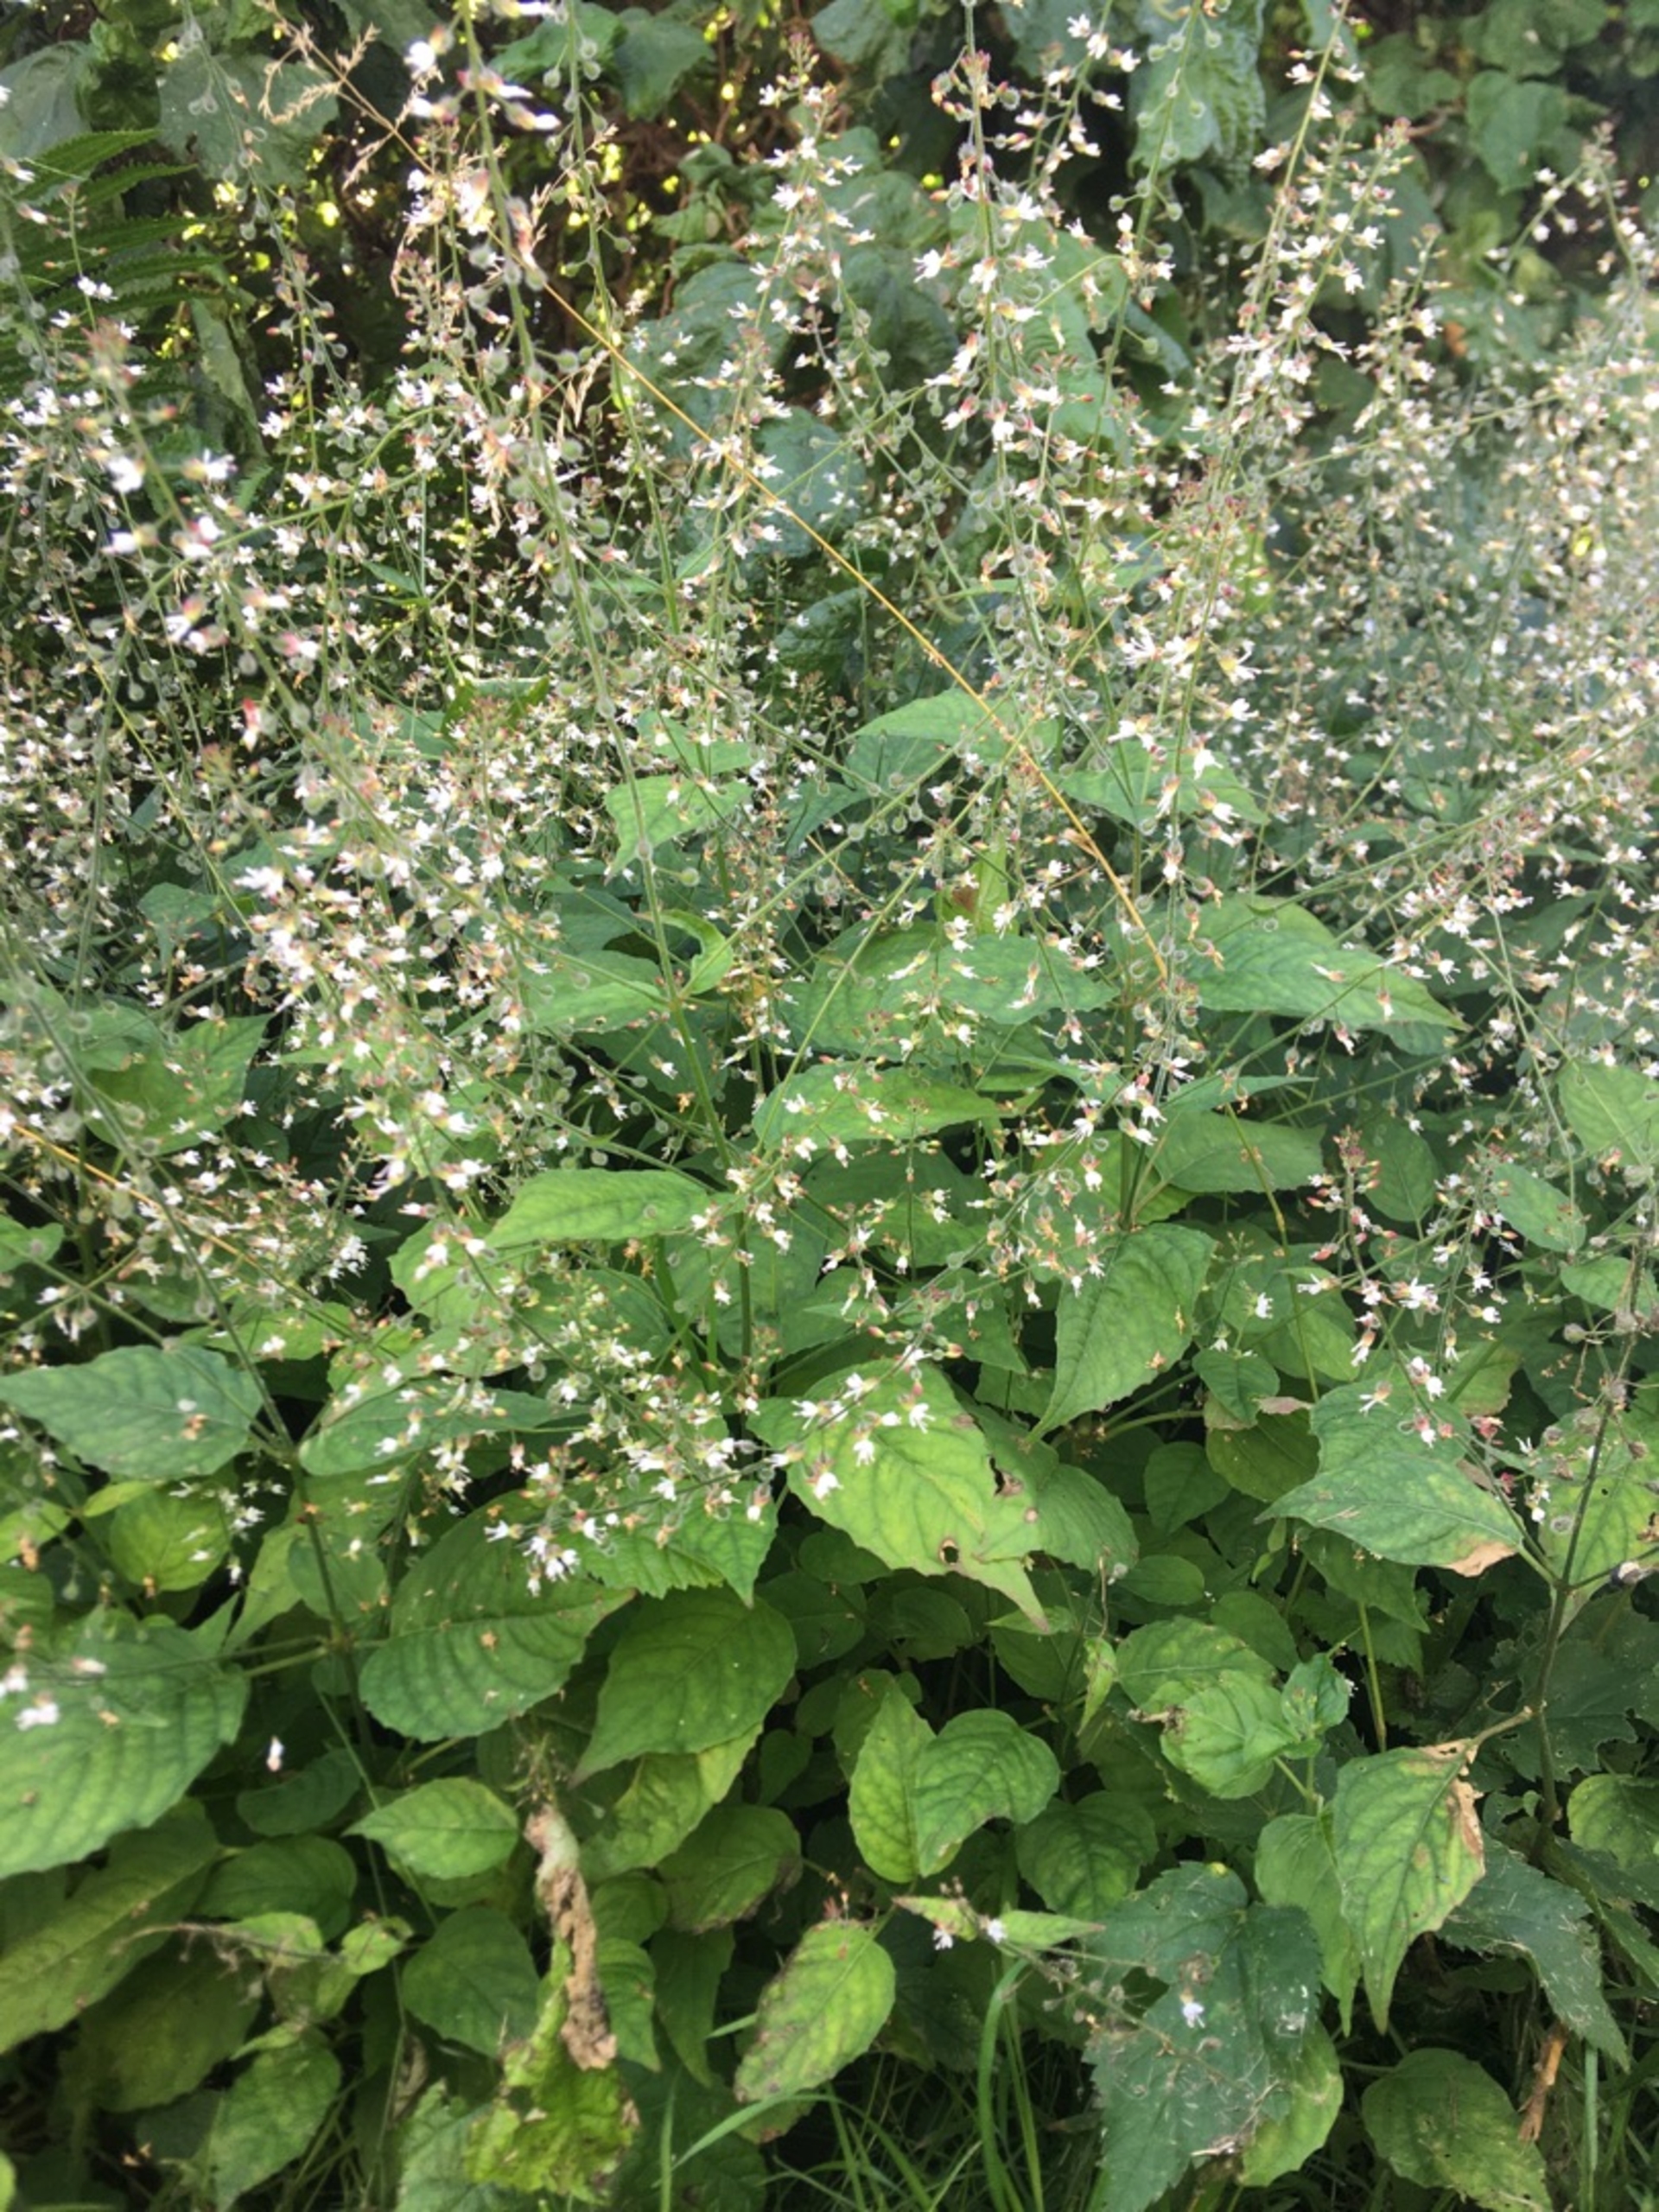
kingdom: Plantae
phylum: Tracheophyta
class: Magnoliopsida
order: Myrtales
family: Onagraceae
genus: Circaea
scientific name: Circaea lutetiana
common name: Dunet steffensurt
